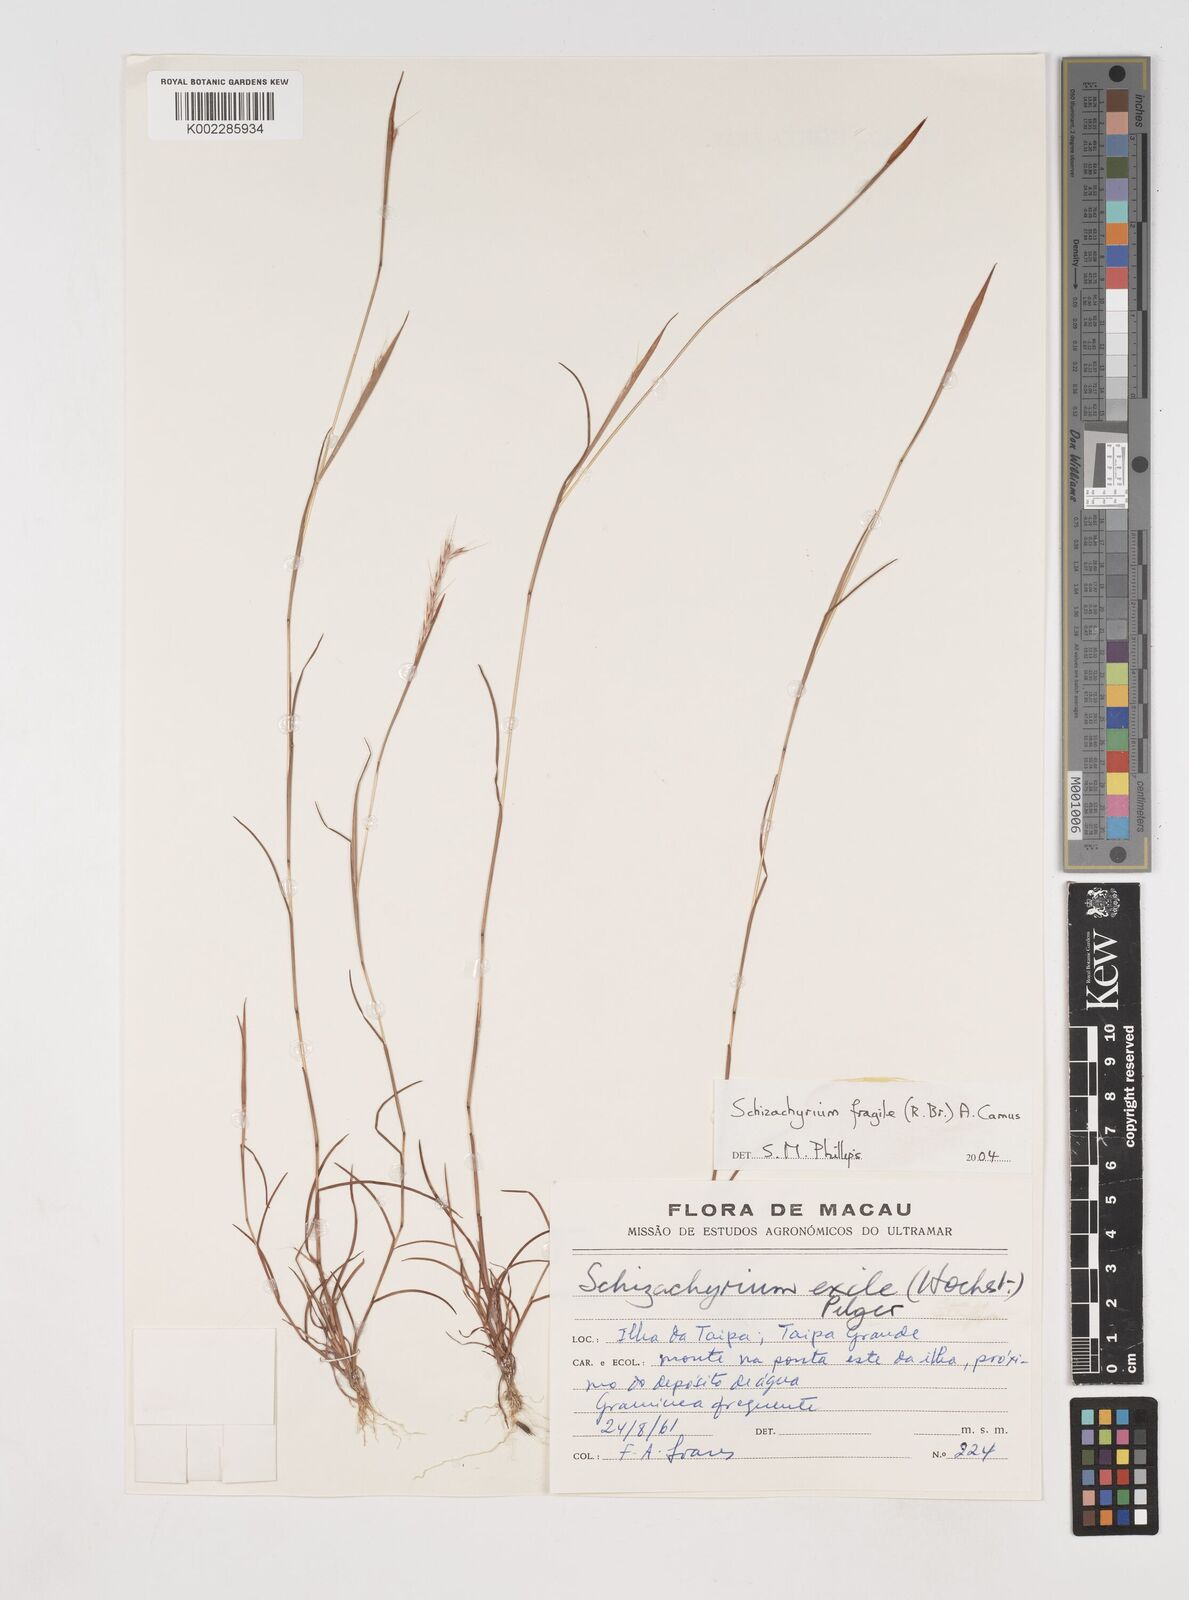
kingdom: Plantae
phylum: Tracheophyta
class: Liliopsida
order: Poales
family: Poaceae
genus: Schizachyrium
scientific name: Schizachyrium fragile
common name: Red spathe grass
